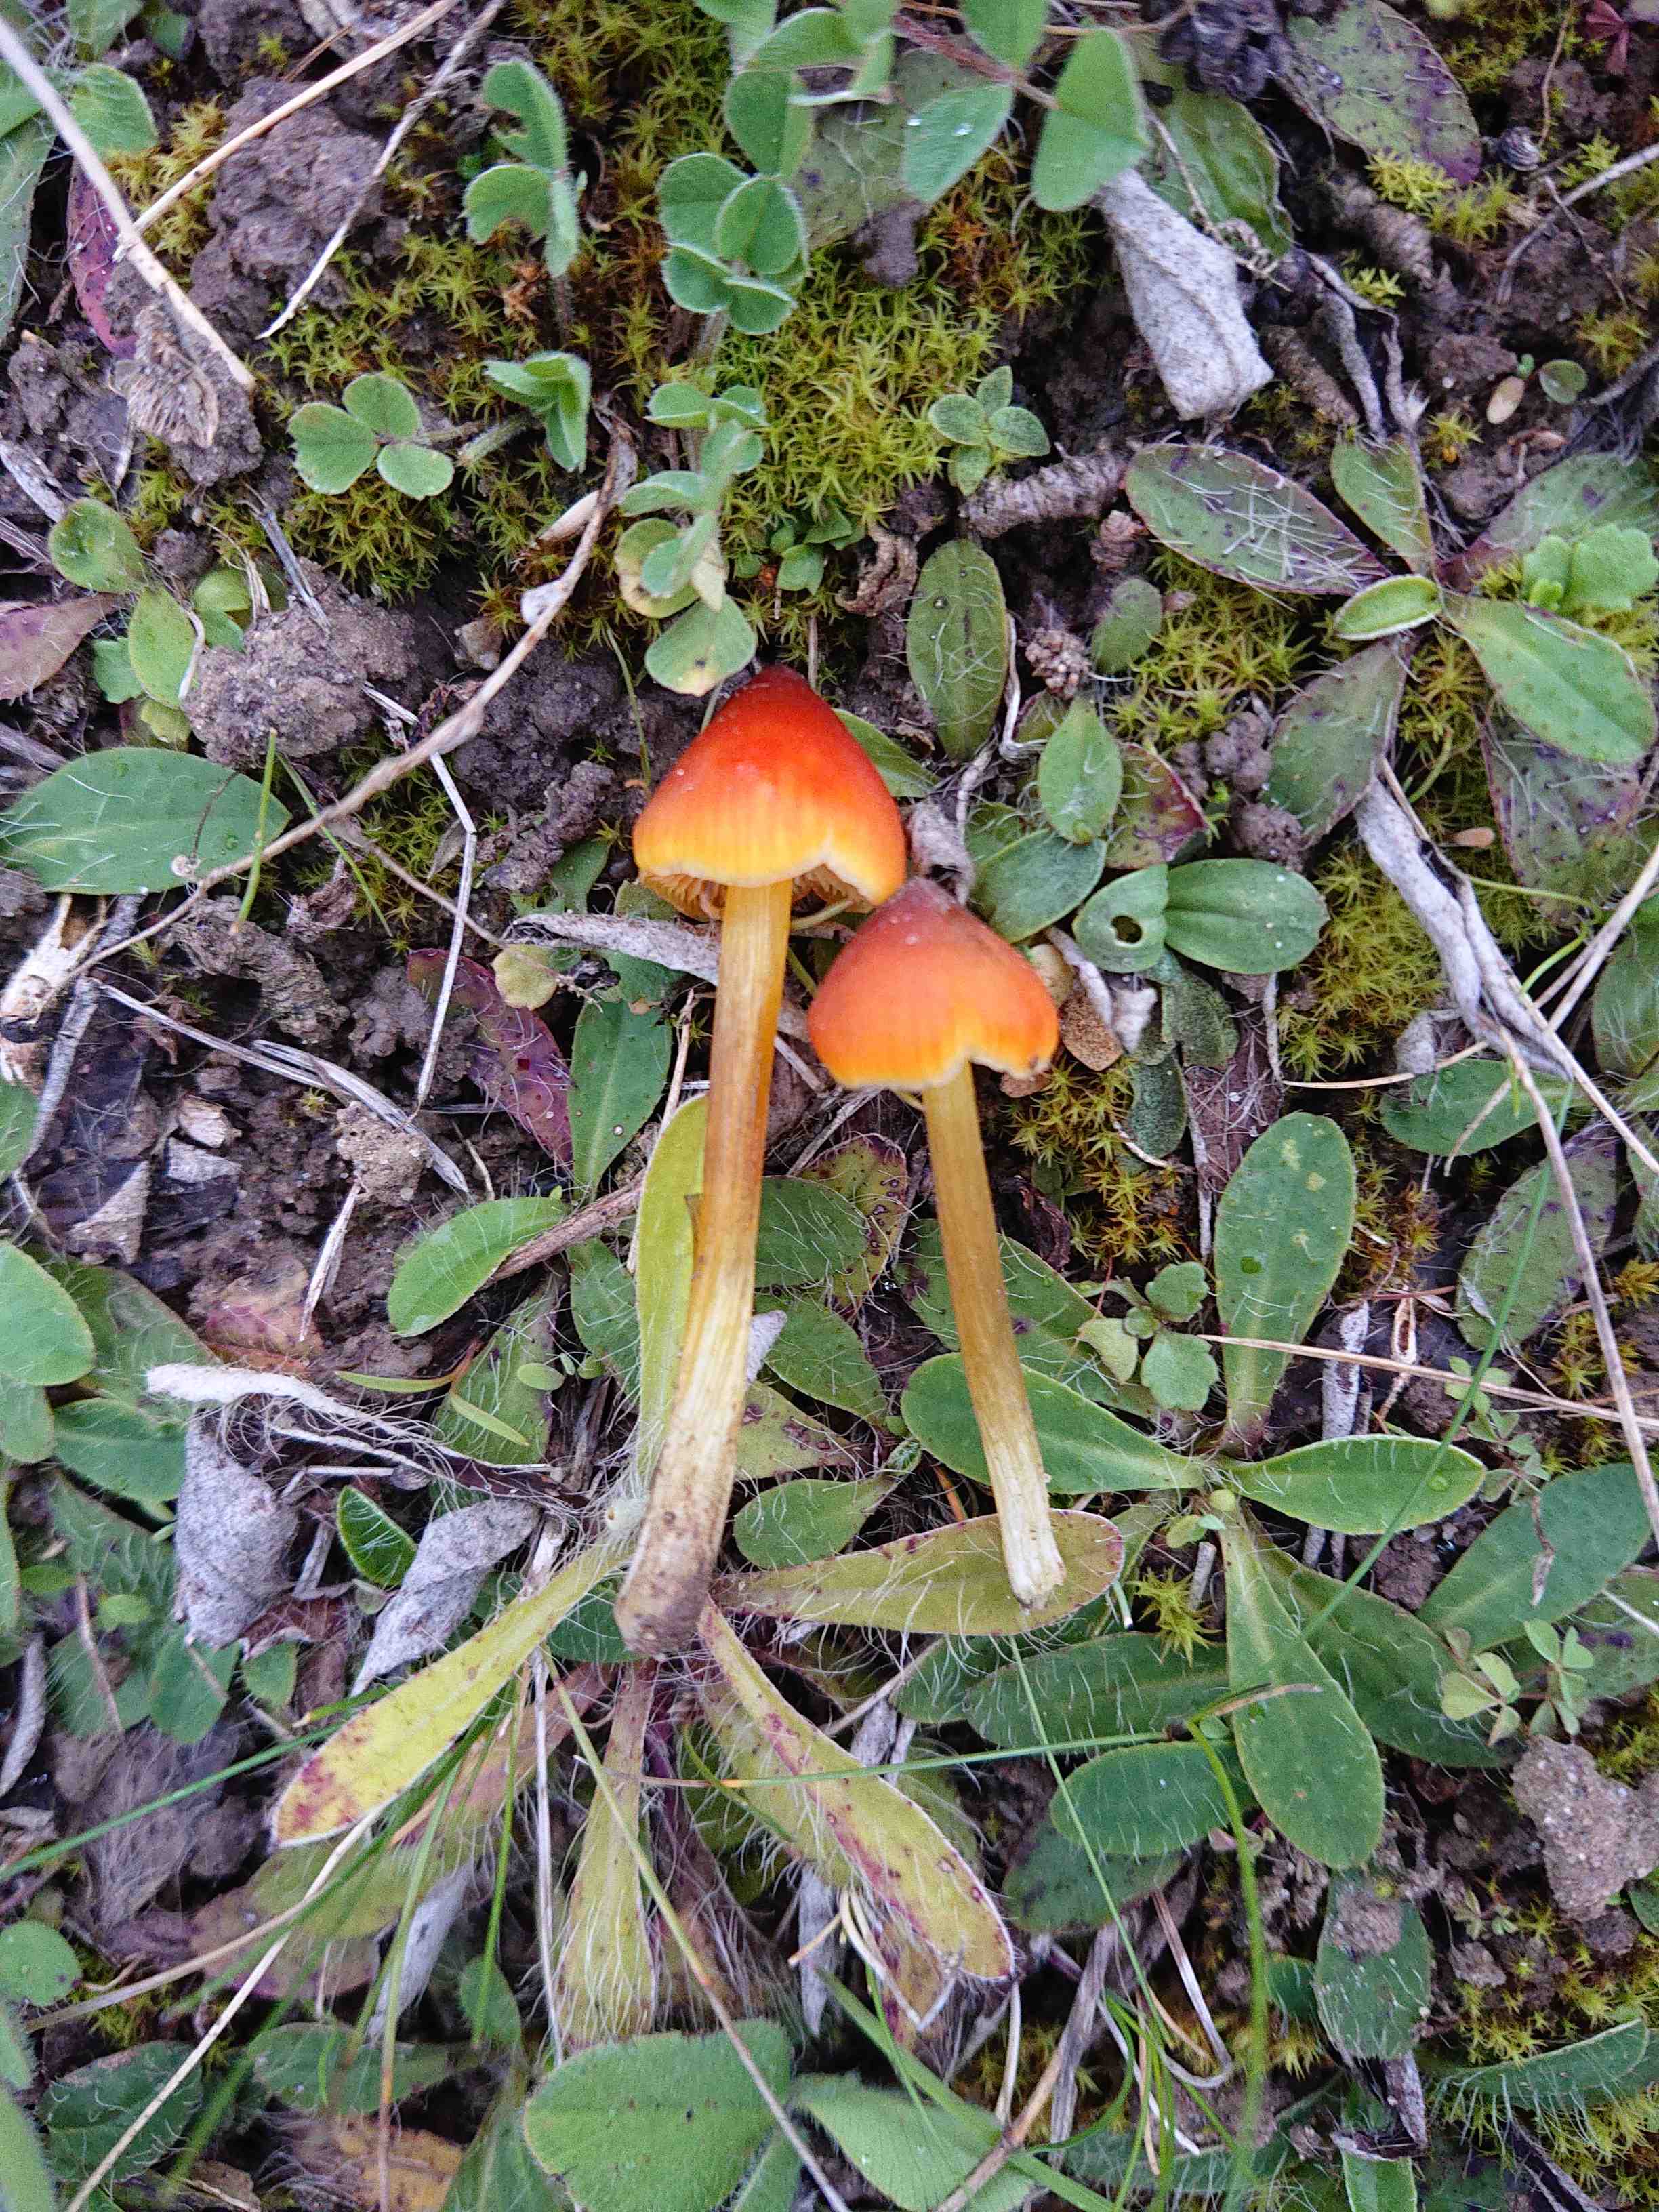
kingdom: Fungi
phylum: Basidiomycota
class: Agaricomycetes
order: Agaricales
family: Hygrophoraceae
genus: Hygrocybe
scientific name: Hygrocybe conica
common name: kegle-vokshat
